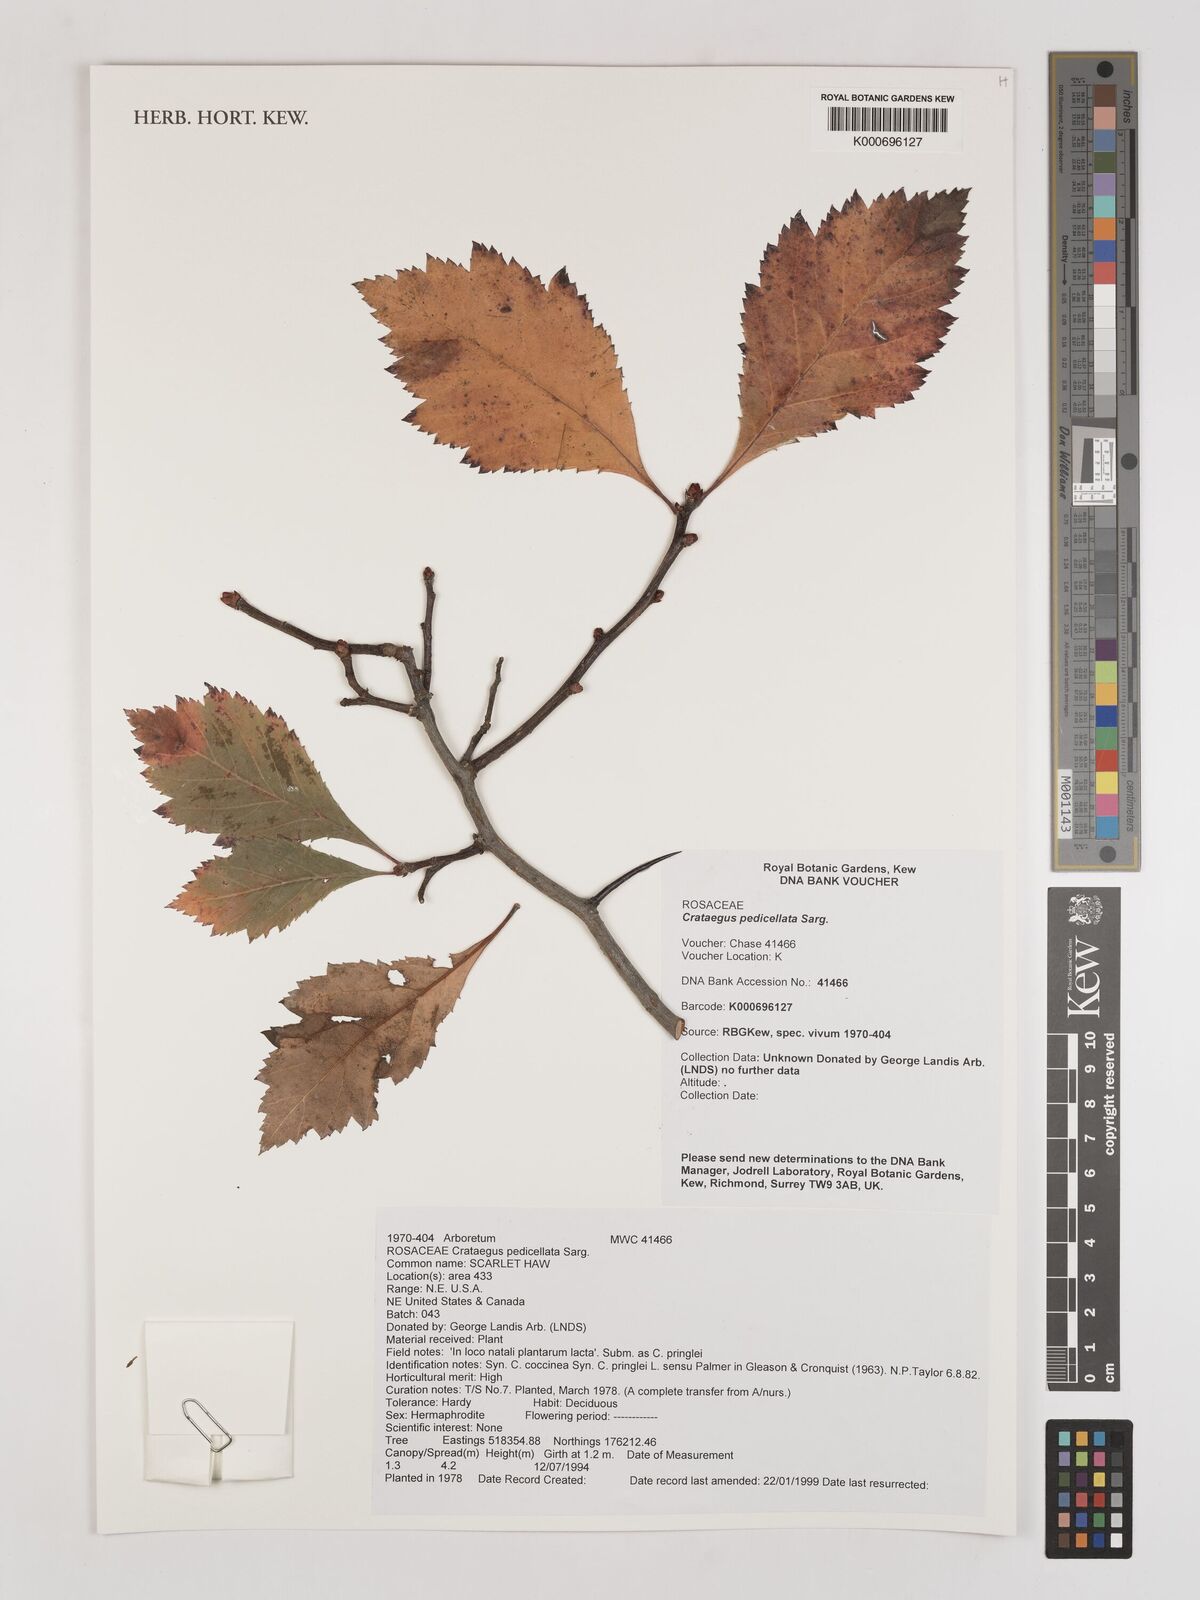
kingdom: Plantae
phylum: Tracheophyta
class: Magnoliopsida
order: Rosales
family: Rosaceae
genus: Crataegus
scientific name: Crataegus coccinea
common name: Scarlet hawthorn
